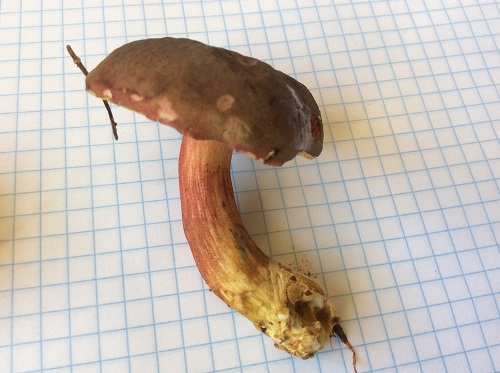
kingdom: Fungi
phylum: Basidiomycota
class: Agaricomycetes
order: Boletales
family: Boletaceae
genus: Xerocomellus
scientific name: Xerocomellus pruinatus
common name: dugget rørhat
